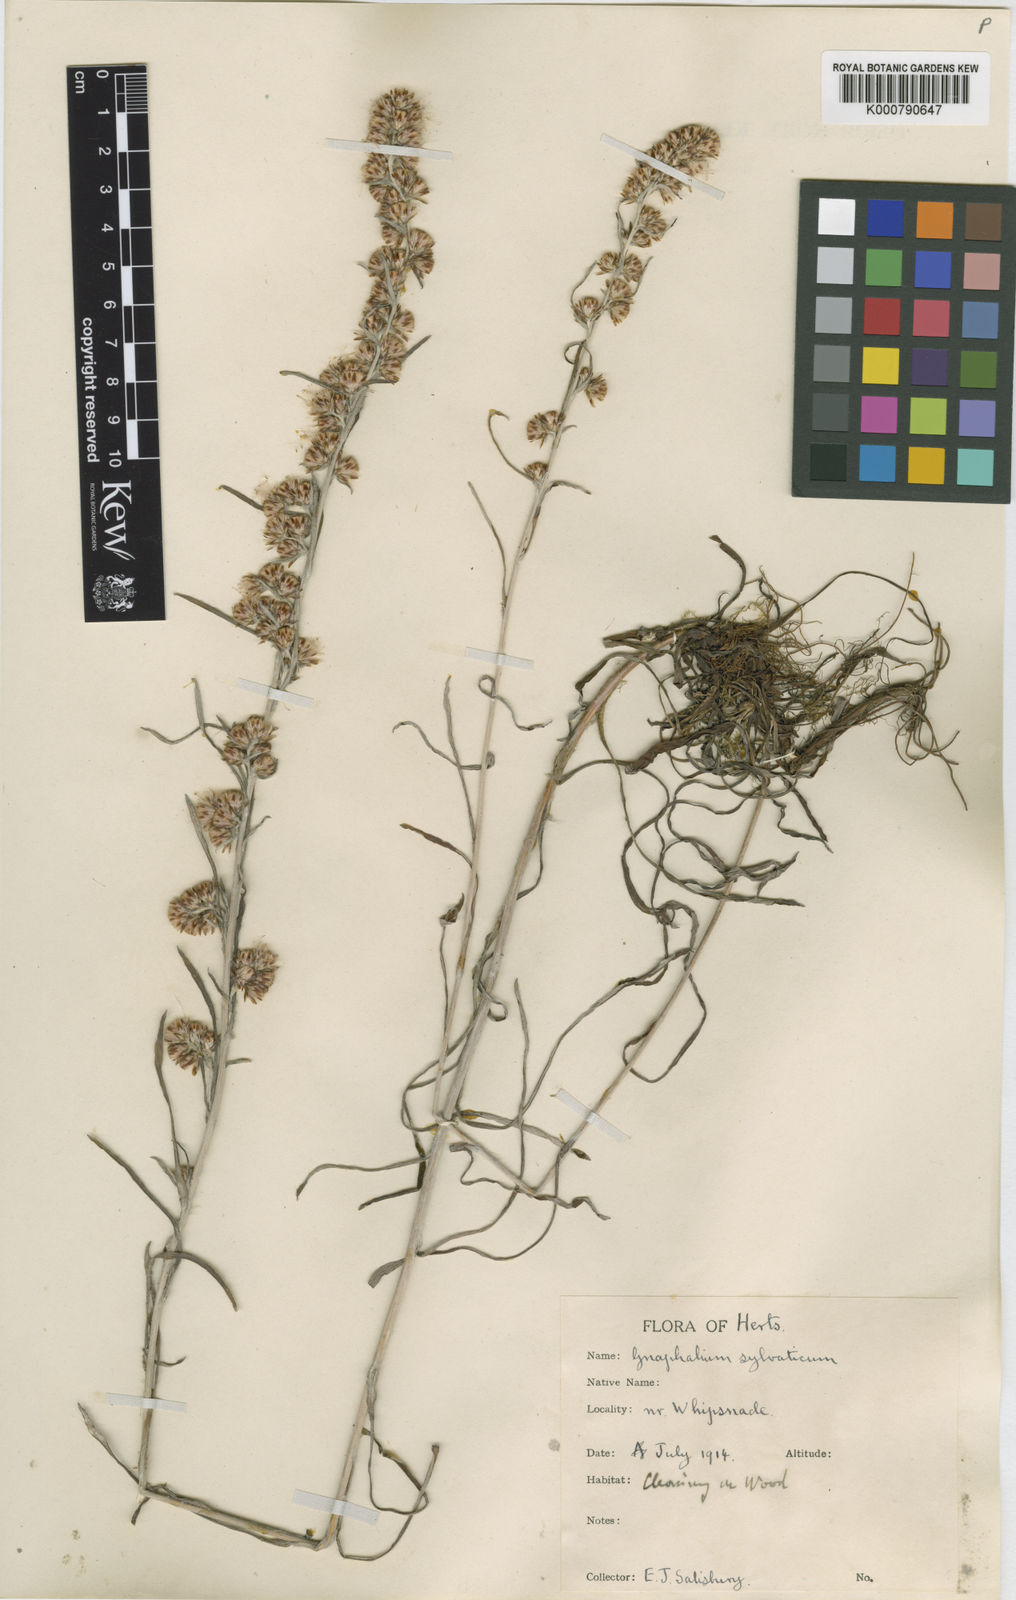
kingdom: Plantae
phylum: Tracheophyta
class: Magnoliopsida
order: Asterales
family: Asteraceae
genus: Omalotheca
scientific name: Omalotheca sylvatica
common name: Heath cudweed
